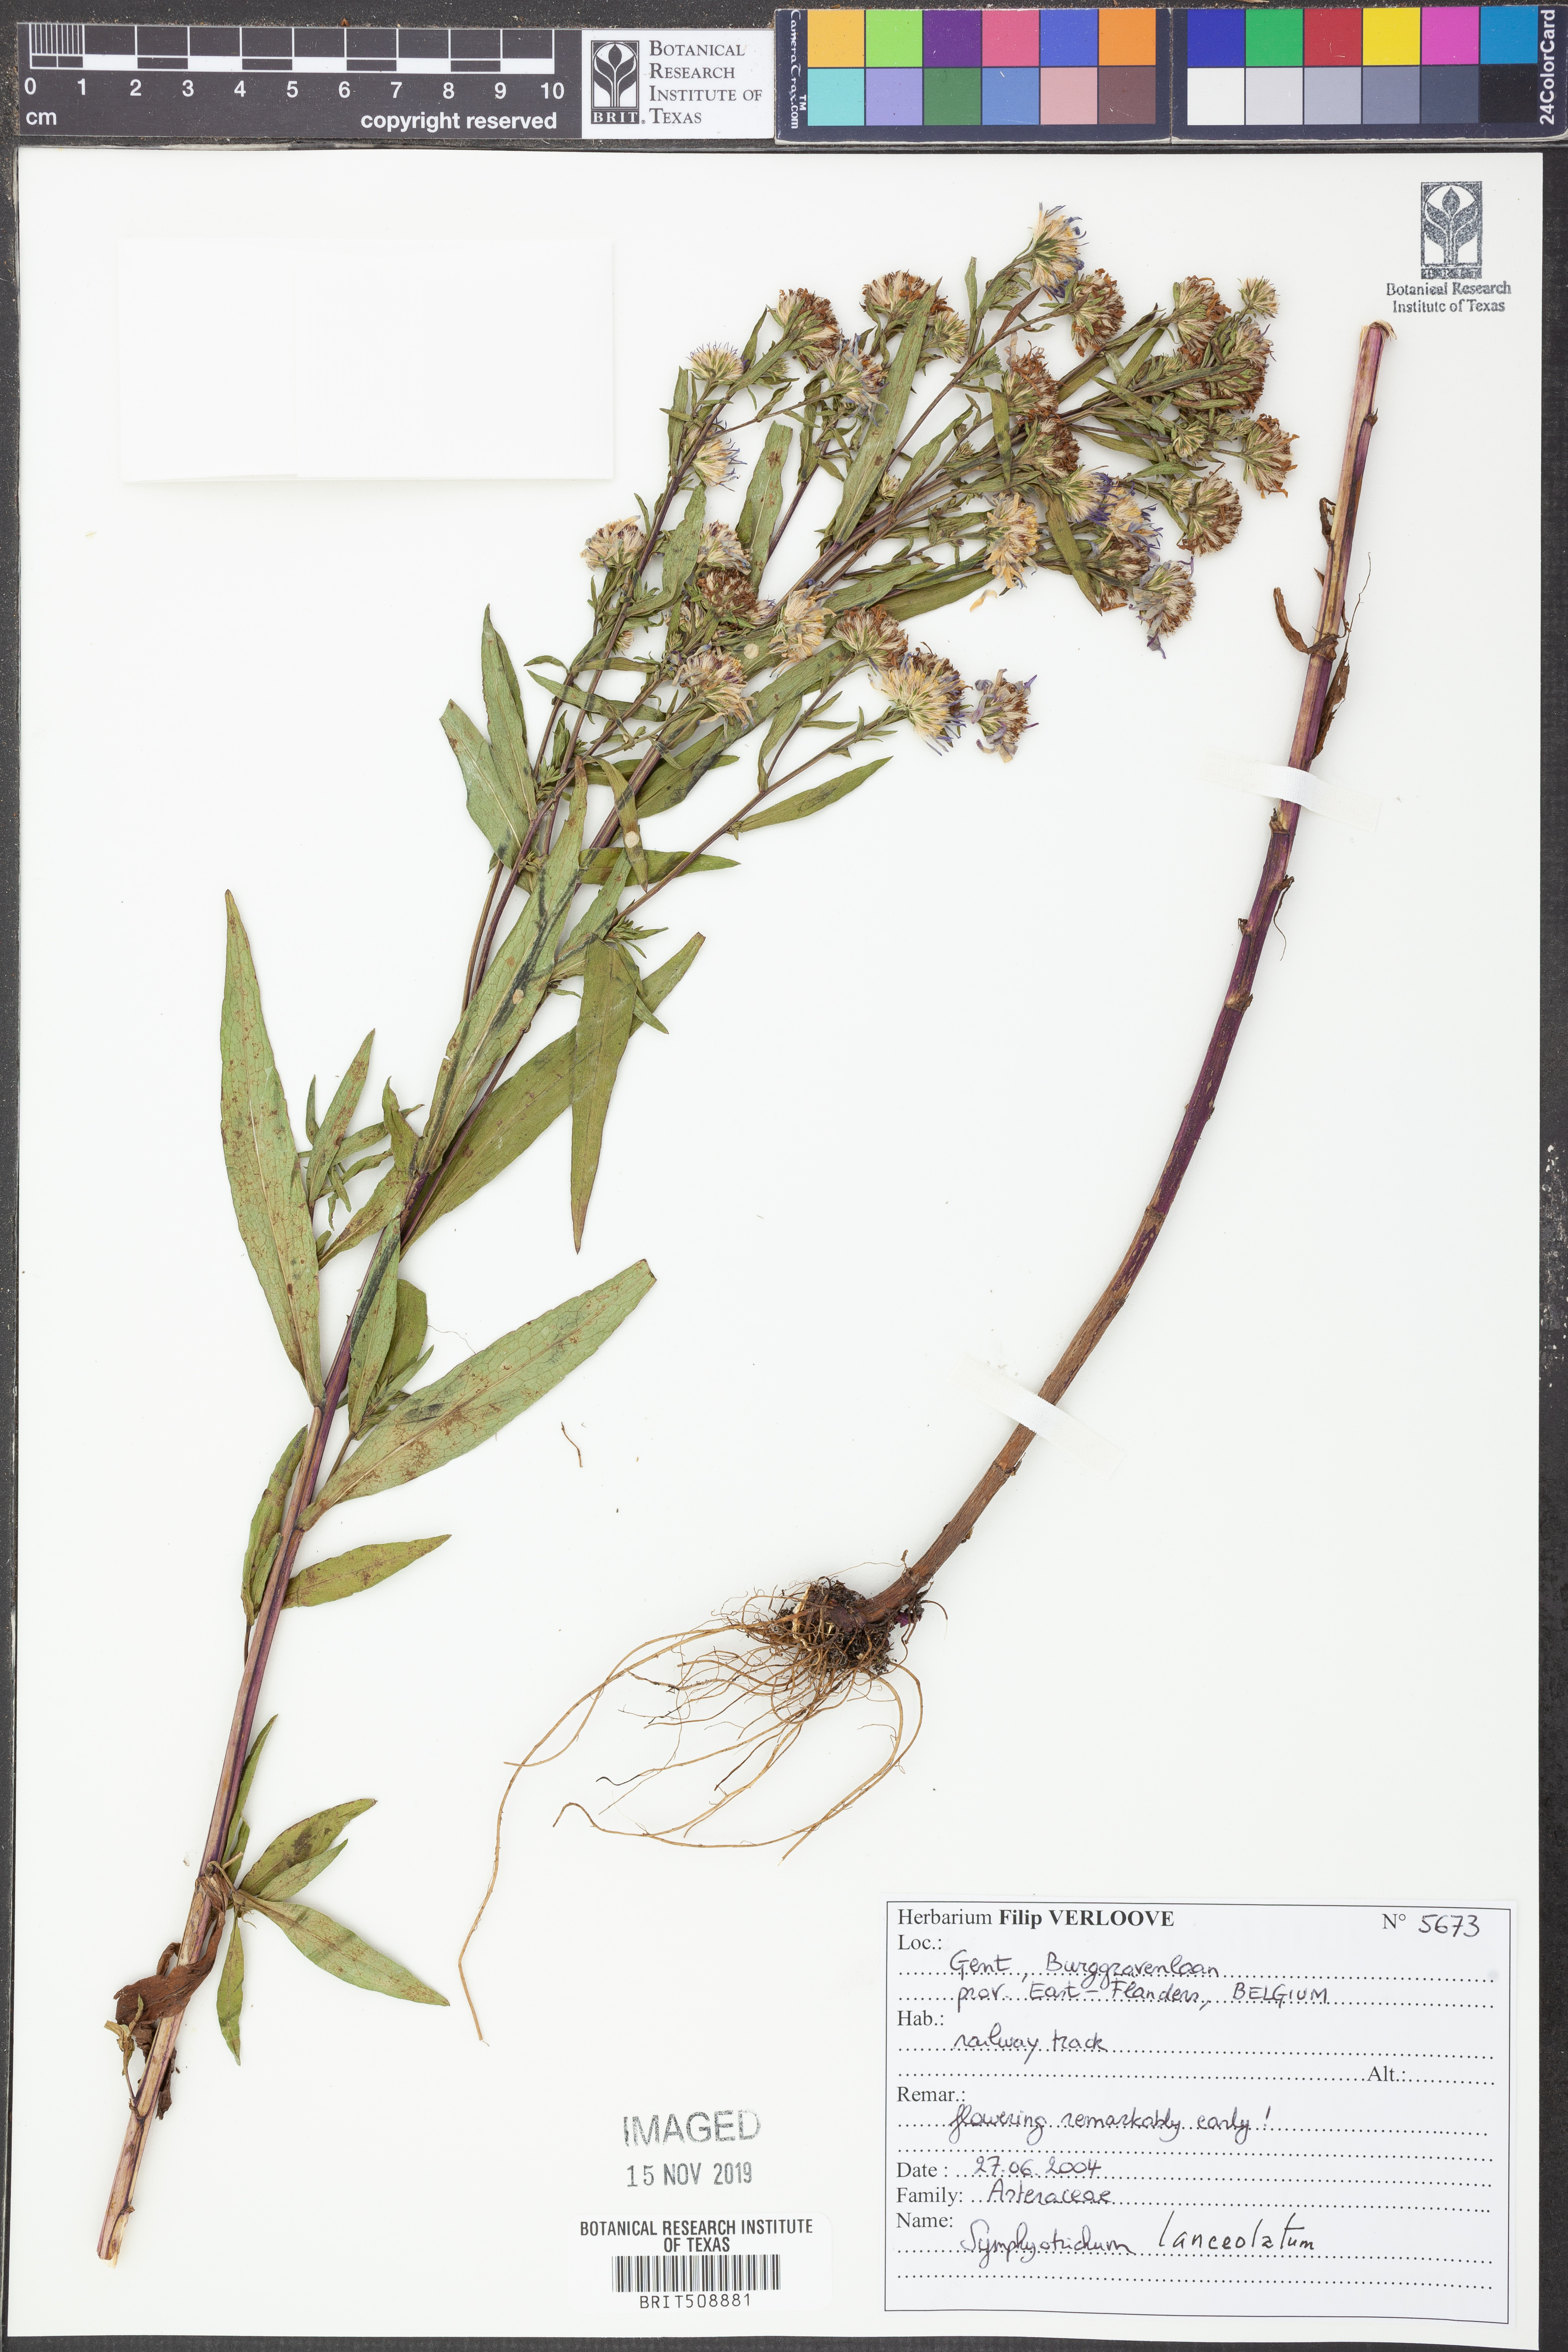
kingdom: Plantae
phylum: Tracheophyta
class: Magnoliopsida
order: Asterales
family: Asteraceae
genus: Symphyotrichum
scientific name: Symphyotrichum
